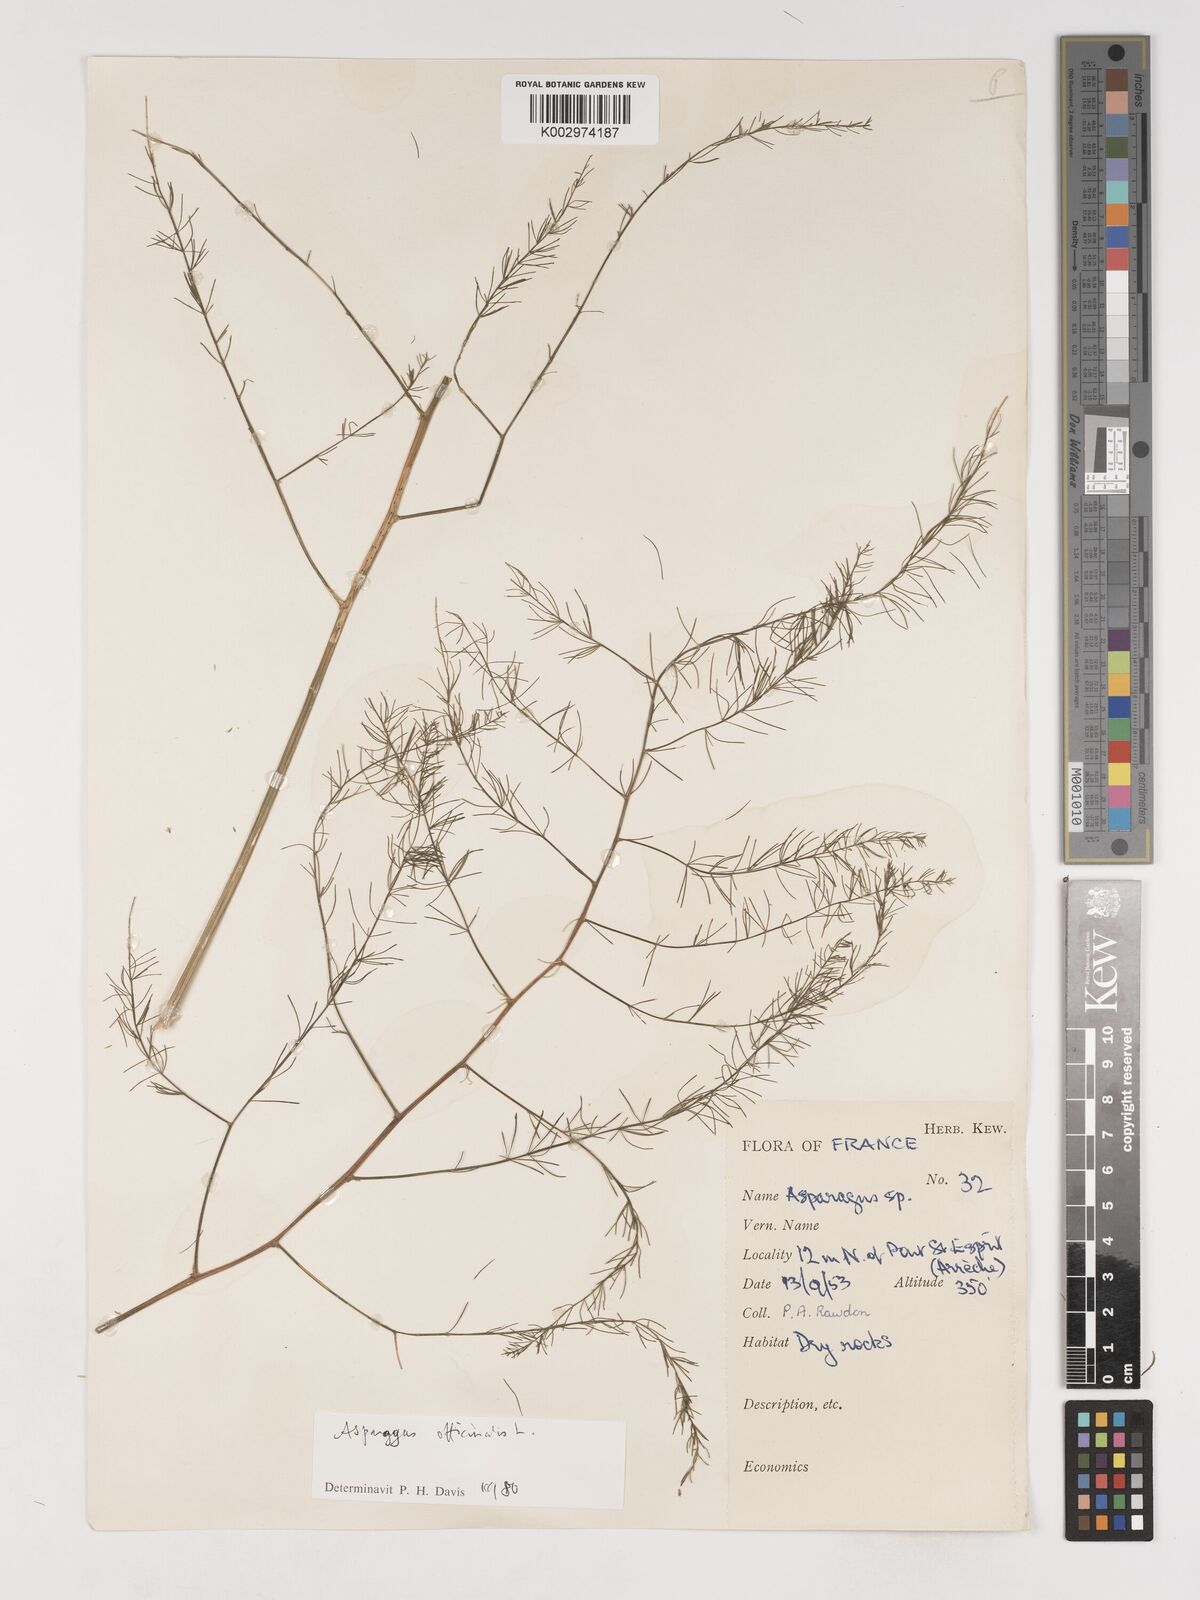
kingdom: Plantae
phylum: Tracheophyta
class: Liliopsida
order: Asparagales
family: Asparagaceae
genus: Asparagus
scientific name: Asparagus
